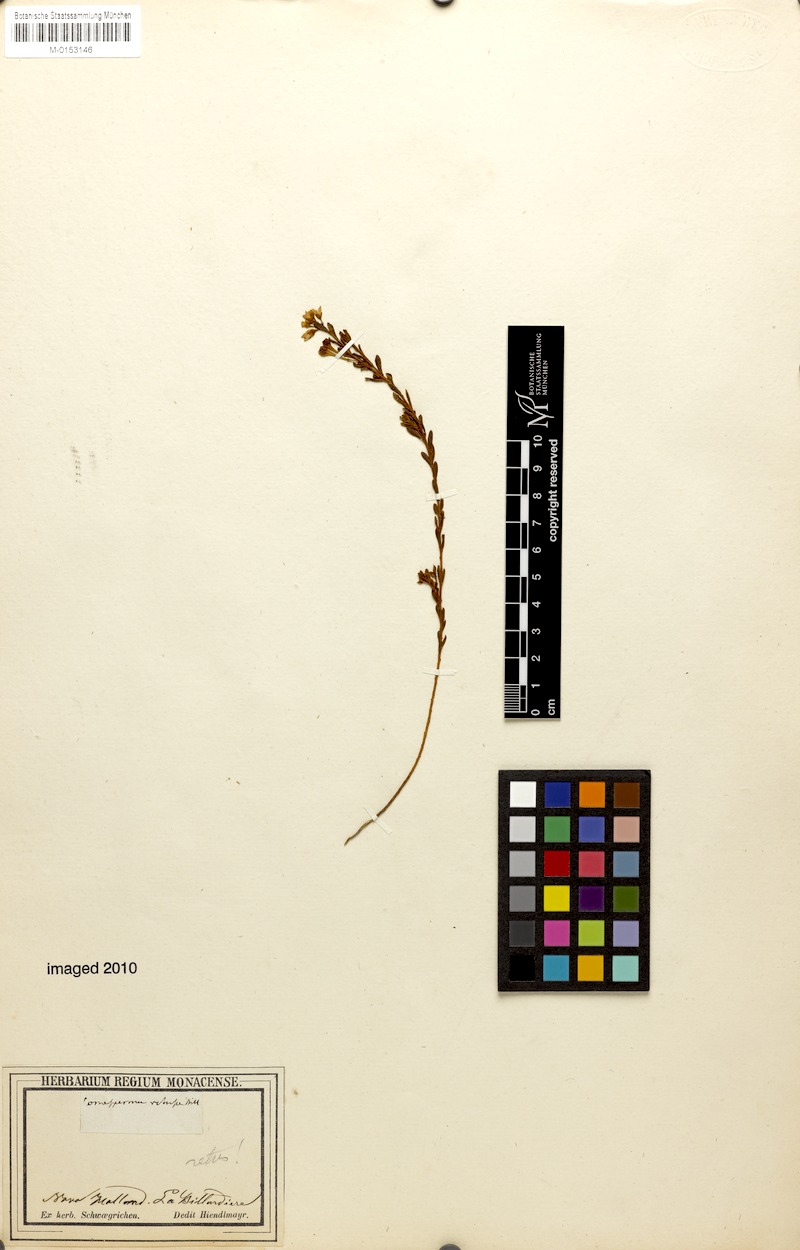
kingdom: Plantae
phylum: Tracheophyta
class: Magnoliopsida
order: Fabales
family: Polygalaceae
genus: Comesperma
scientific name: Comesperma retusum
